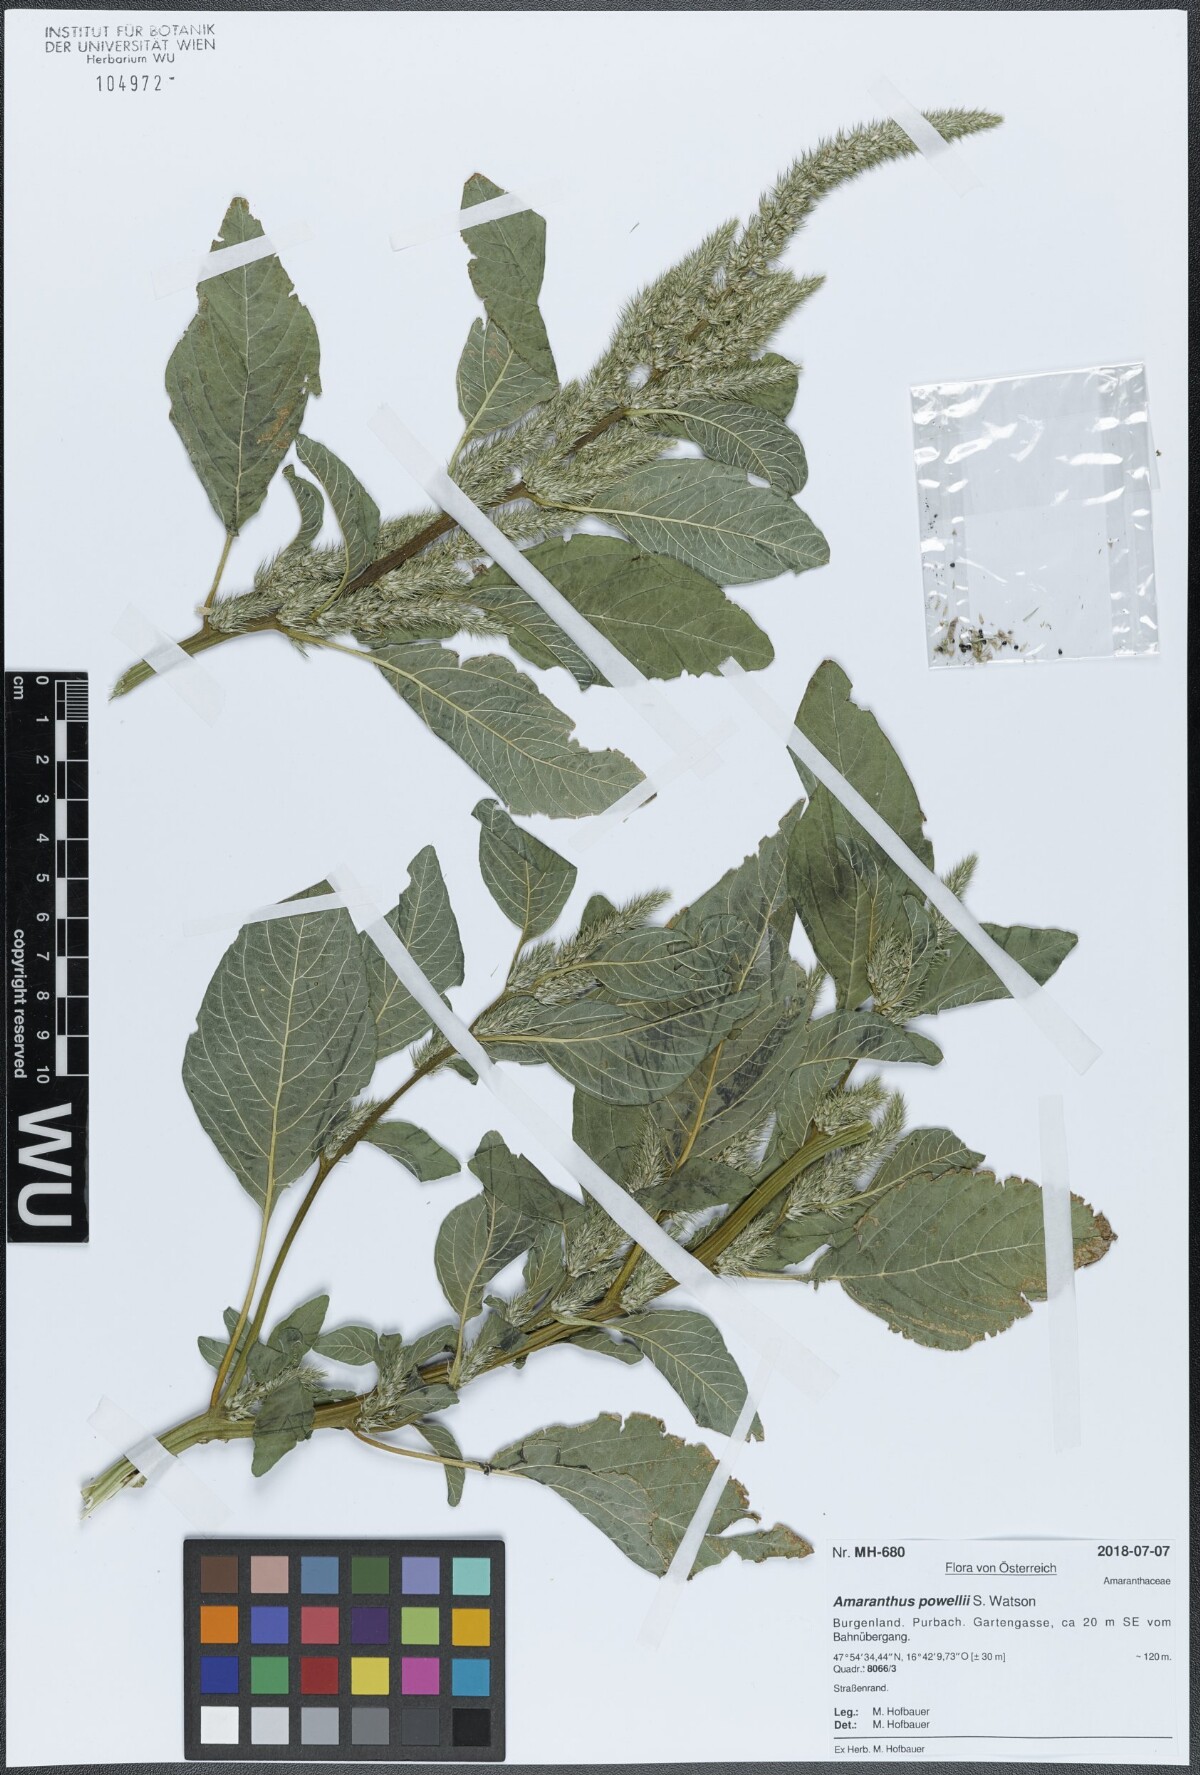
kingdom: Plantae
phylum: Tracheophyta
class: Magnoliopsida
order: Caryophyllales
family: Amaranthaceae
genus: Amaranthus
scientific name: Amaranthus powellii
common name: Powell's amaranth
